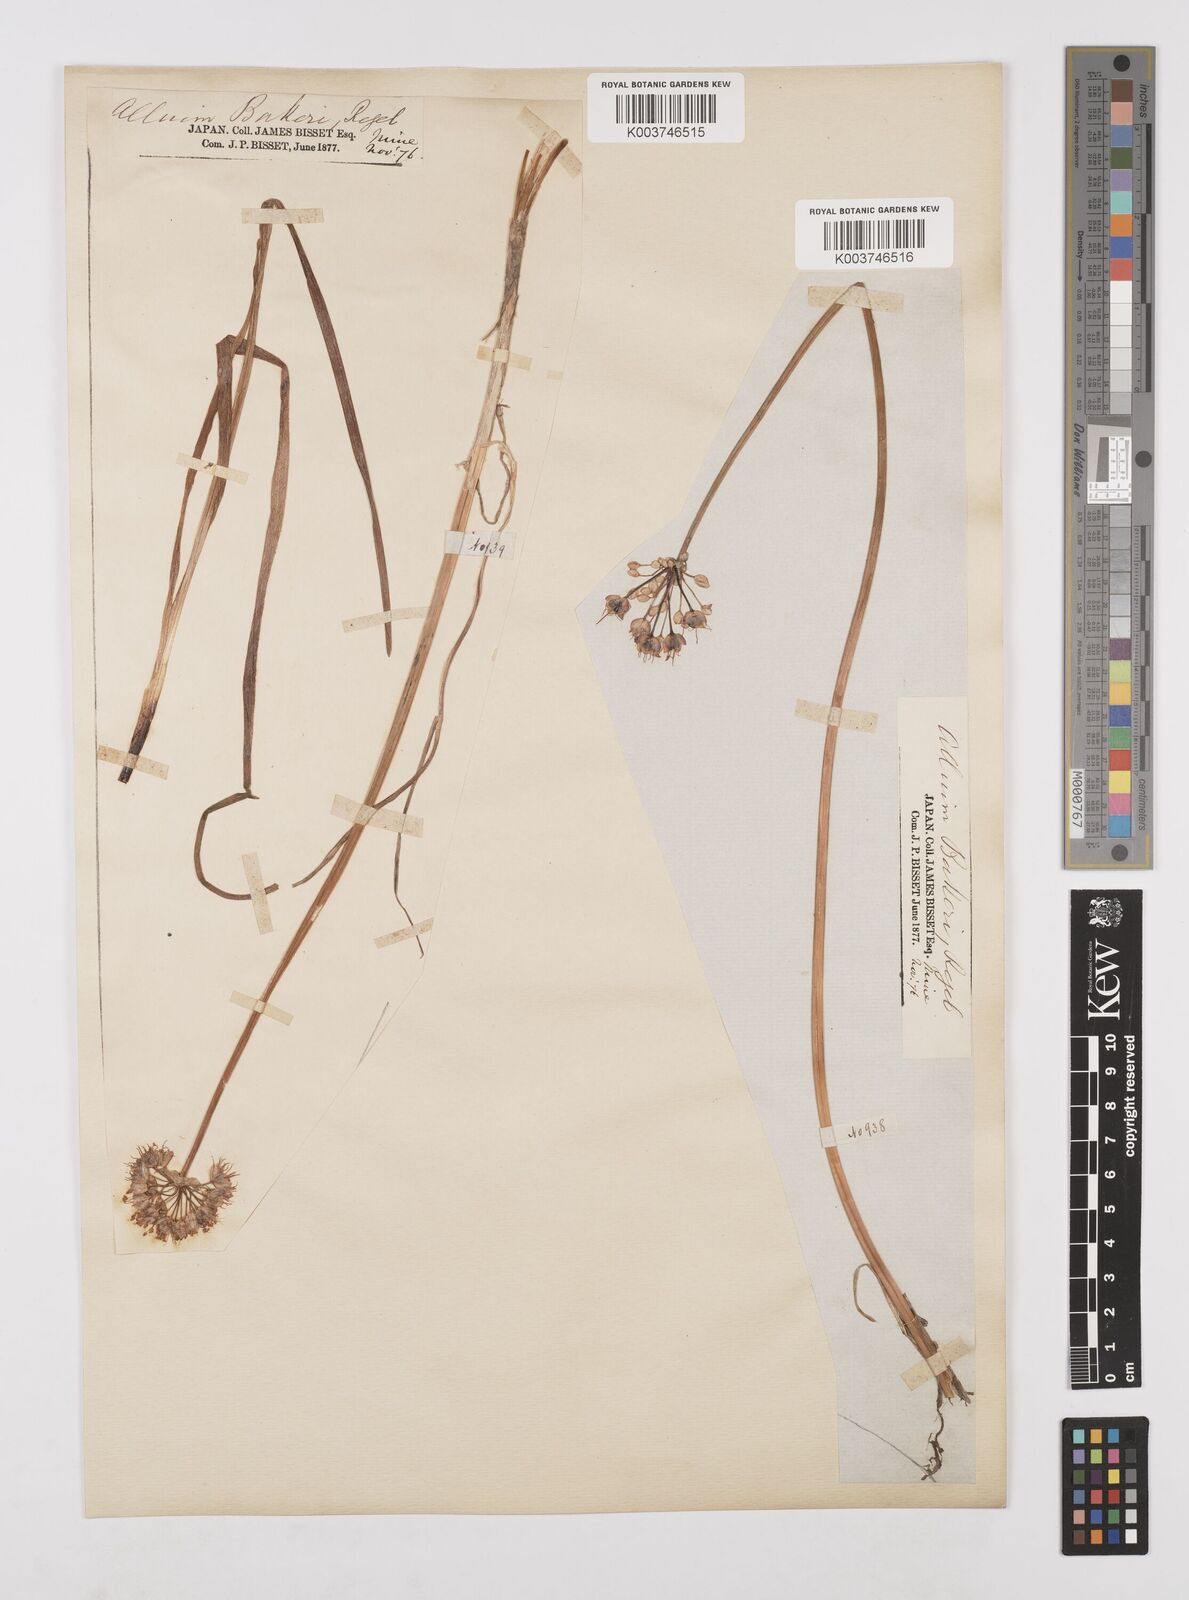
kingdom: Plantae
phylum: Tracheophyta
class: Liliopsida
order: Asparagales
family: Amaryllidaceae
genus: Allium
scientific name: Allium chinense
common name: Japanese scallion
